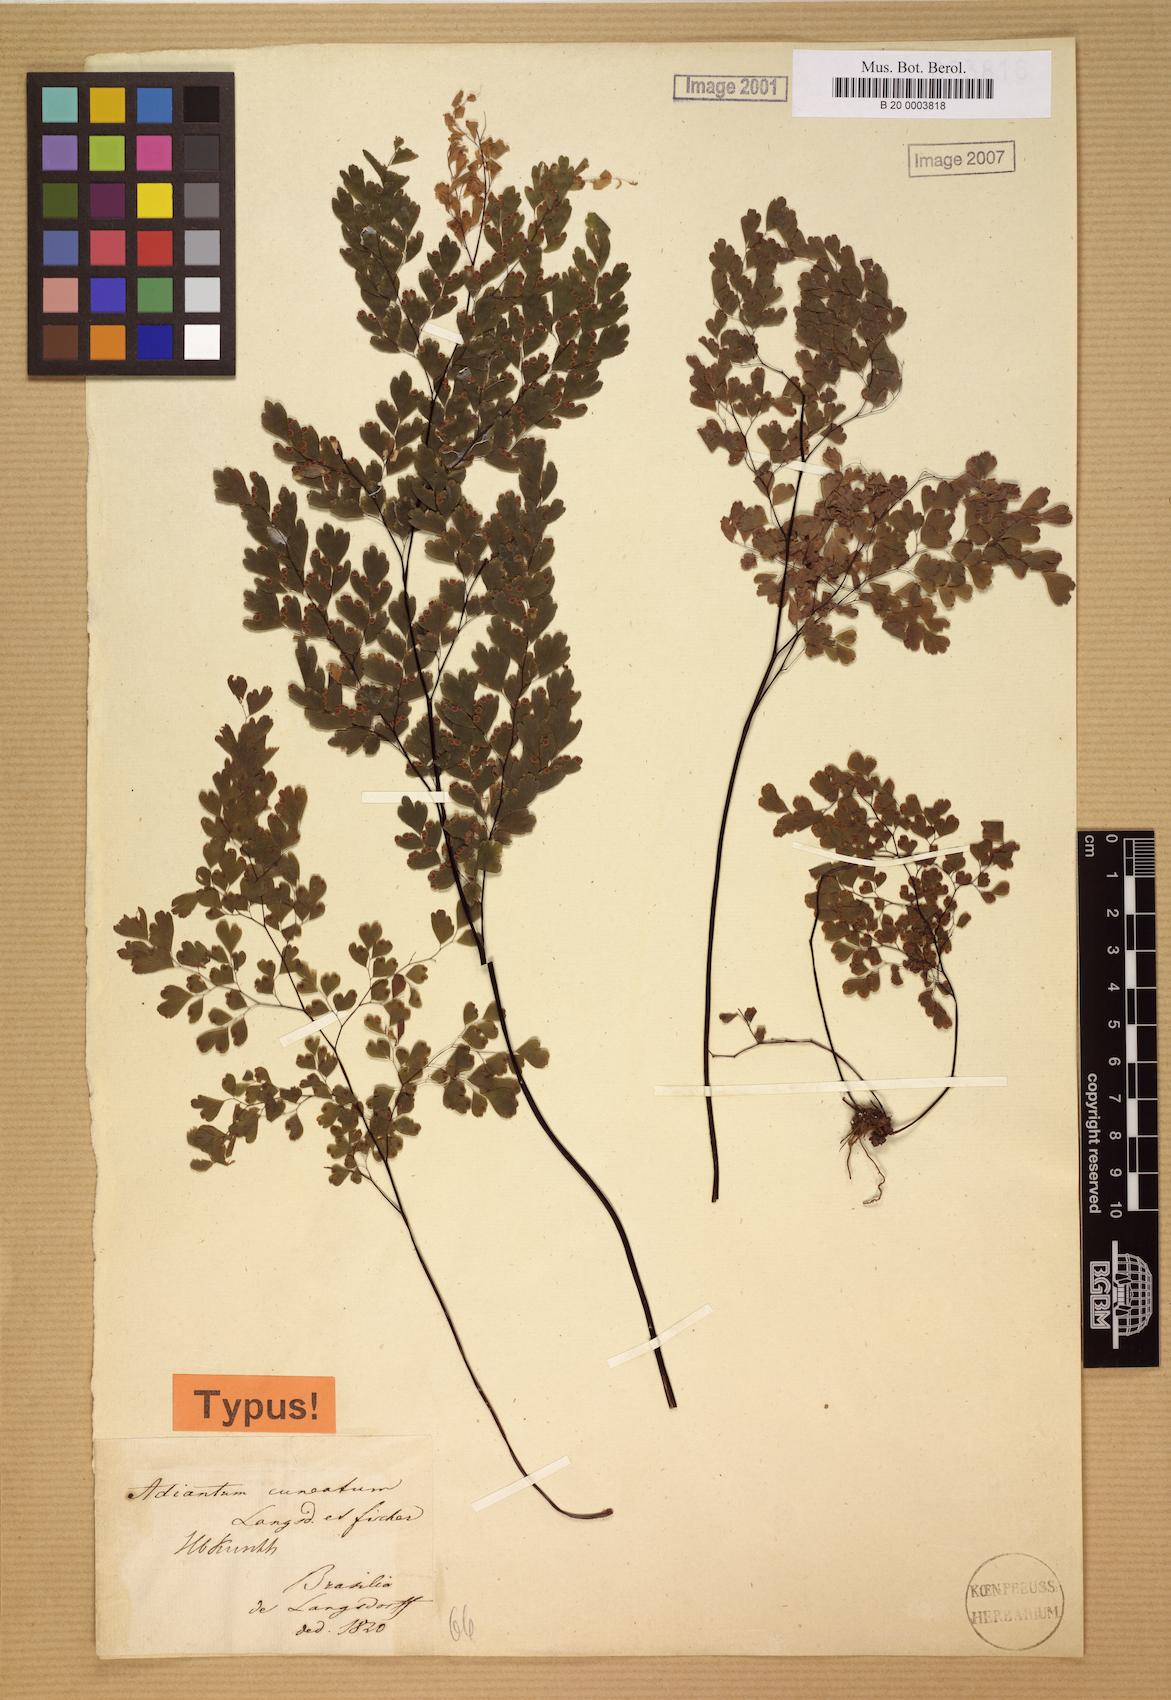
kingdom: Plantae
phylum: Tracheophyta
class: Polypodiopsida
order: Polypodiales
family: Pteridaceae
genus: Adiantum
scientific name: Adiantum raddianum
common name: Delta maidenhair fern
